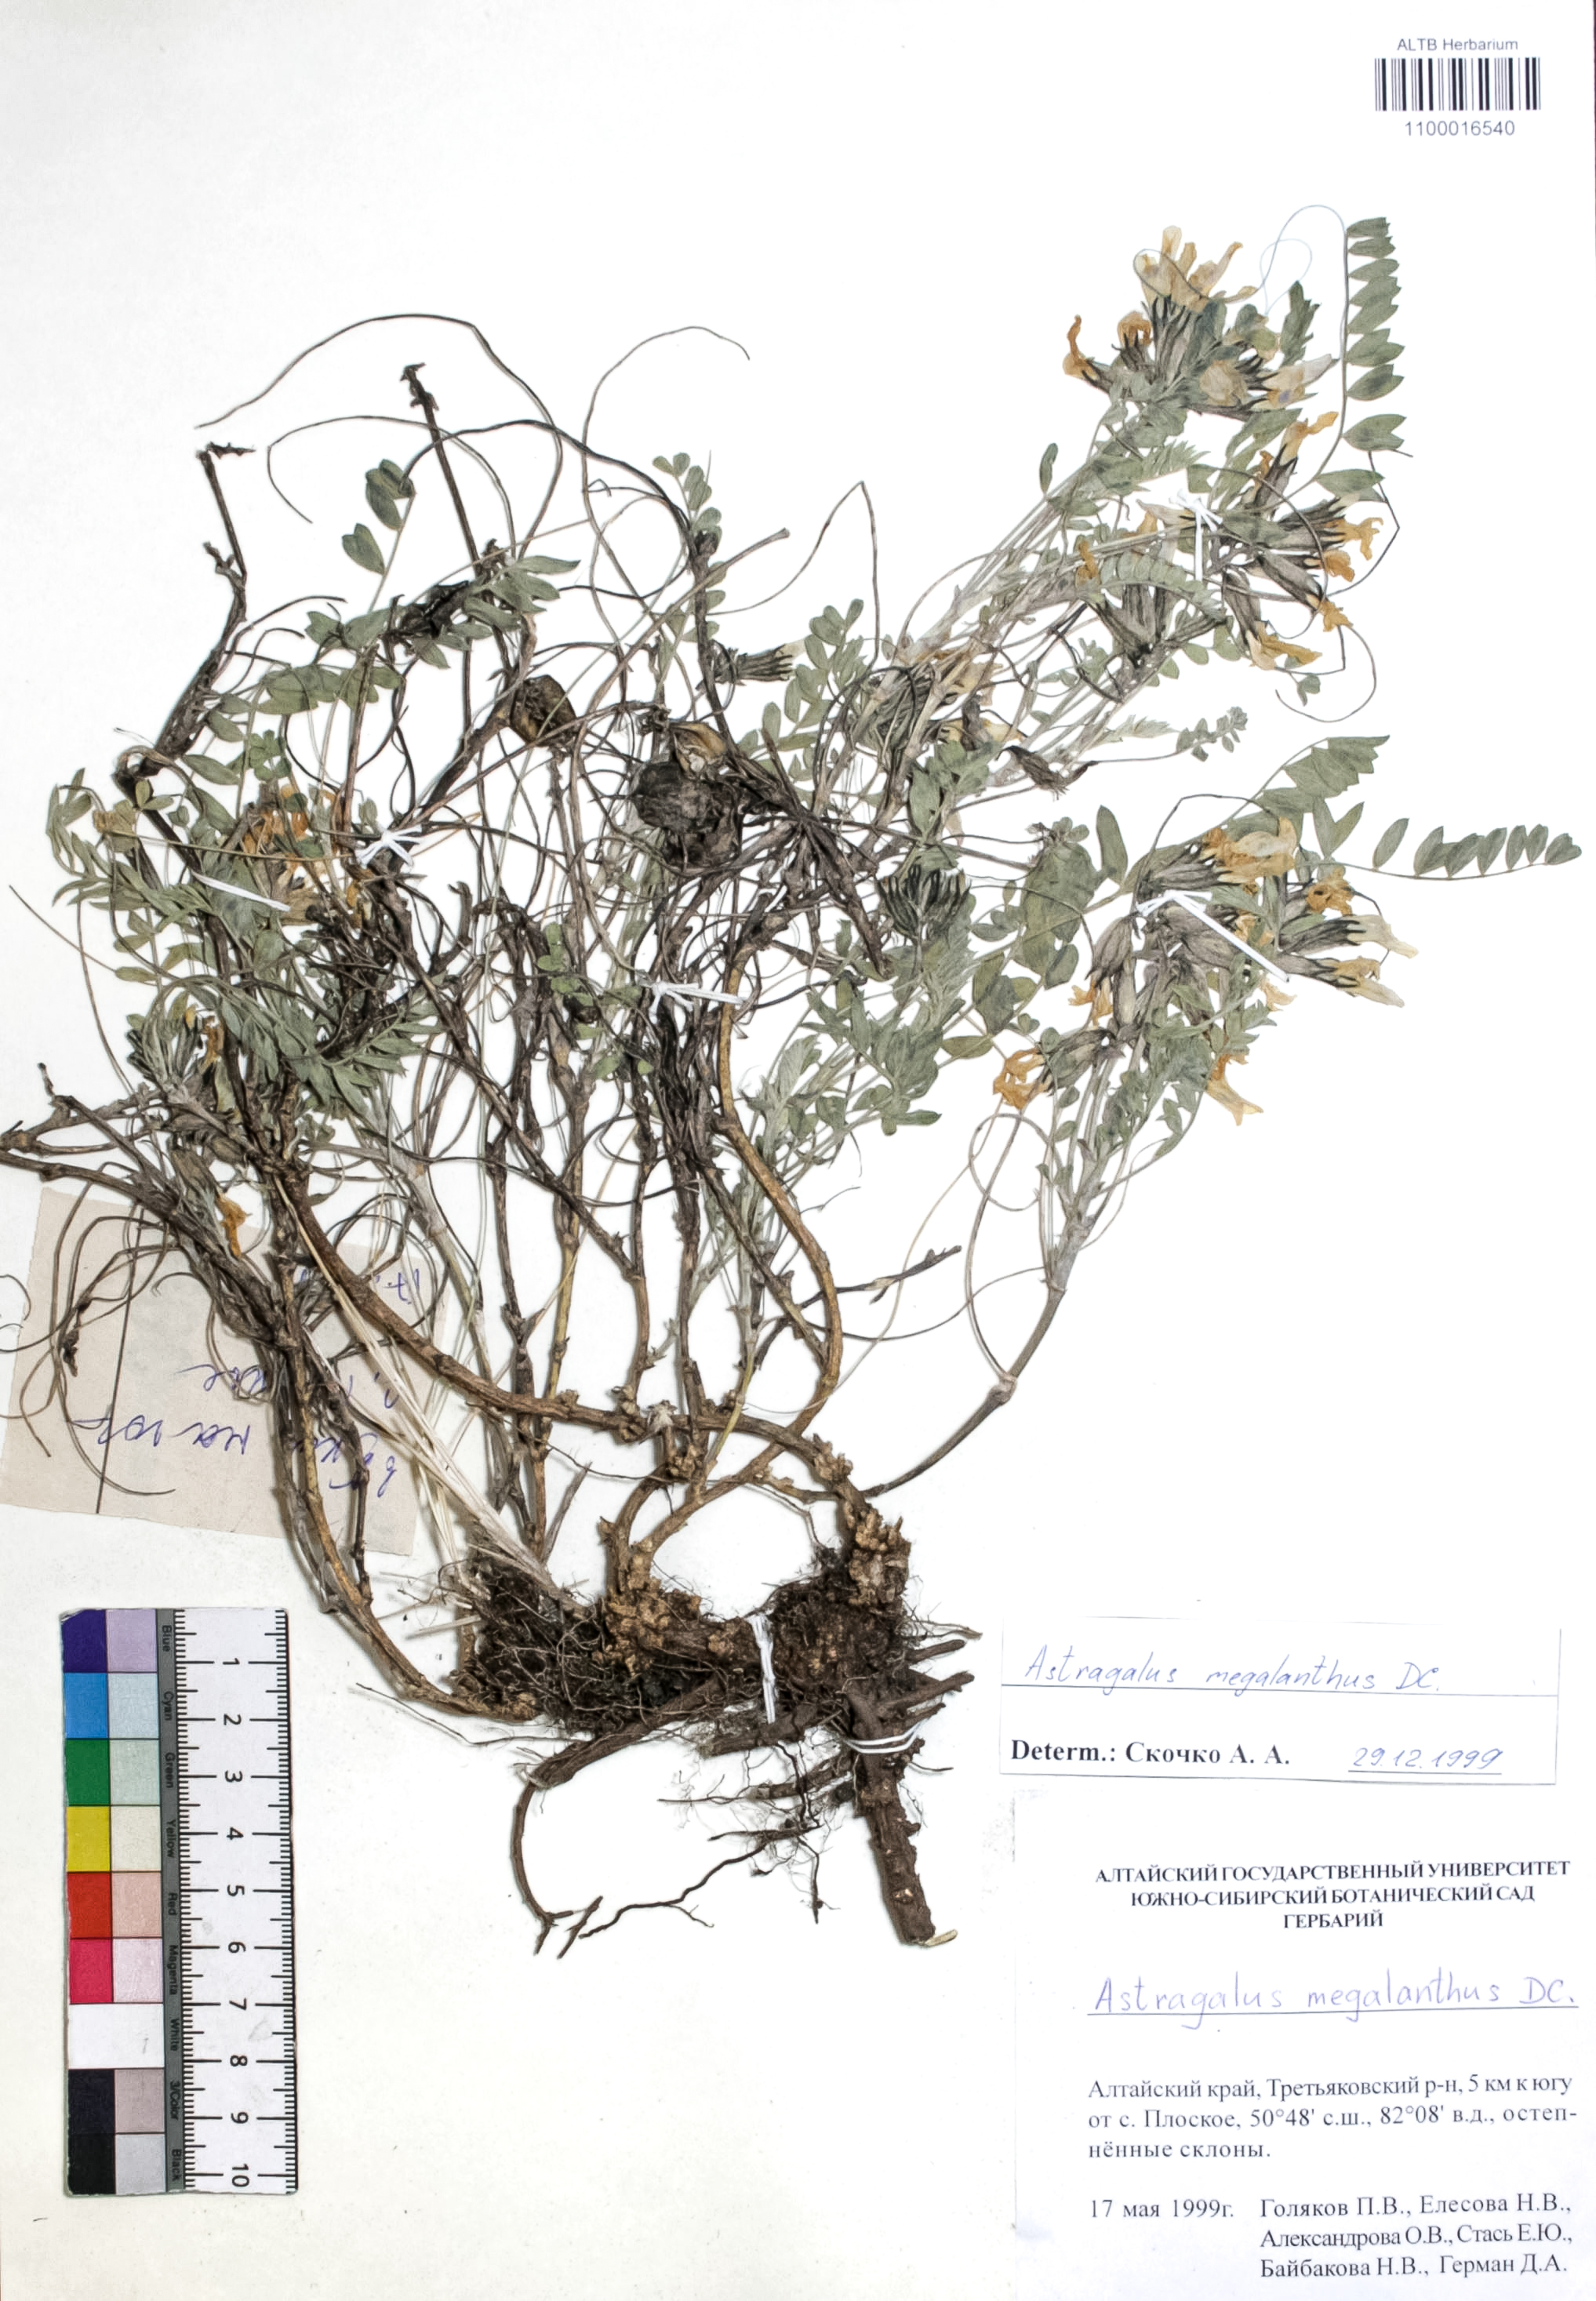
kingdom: Plantae
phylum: Tracheophyta
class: Magnoliopsida
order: Fabales
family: Fabaceae
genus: Astragalus
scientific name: Astragalus leptostachys
